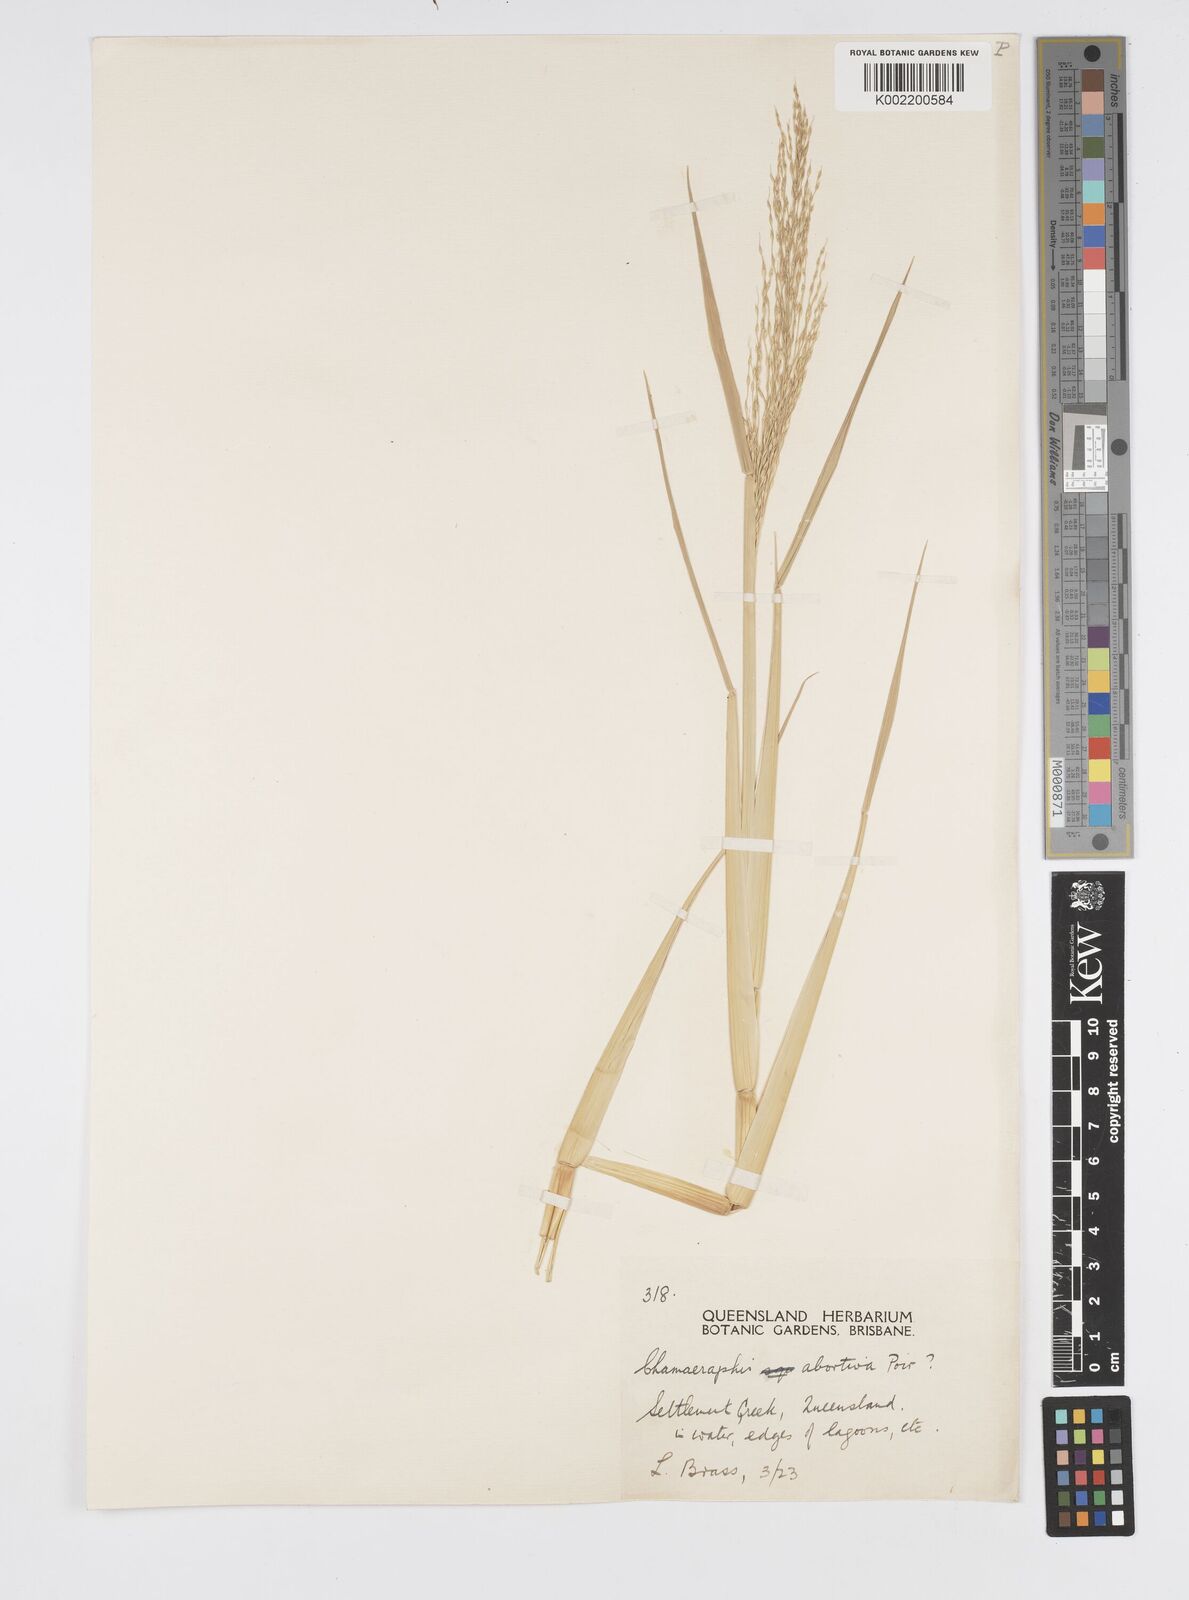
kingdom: Plantae
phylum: Tracheophyta
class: Liliopsida
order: Poales
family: Poaceae
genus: Pseudoraphis
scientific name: Pseudoraphis spinescens
